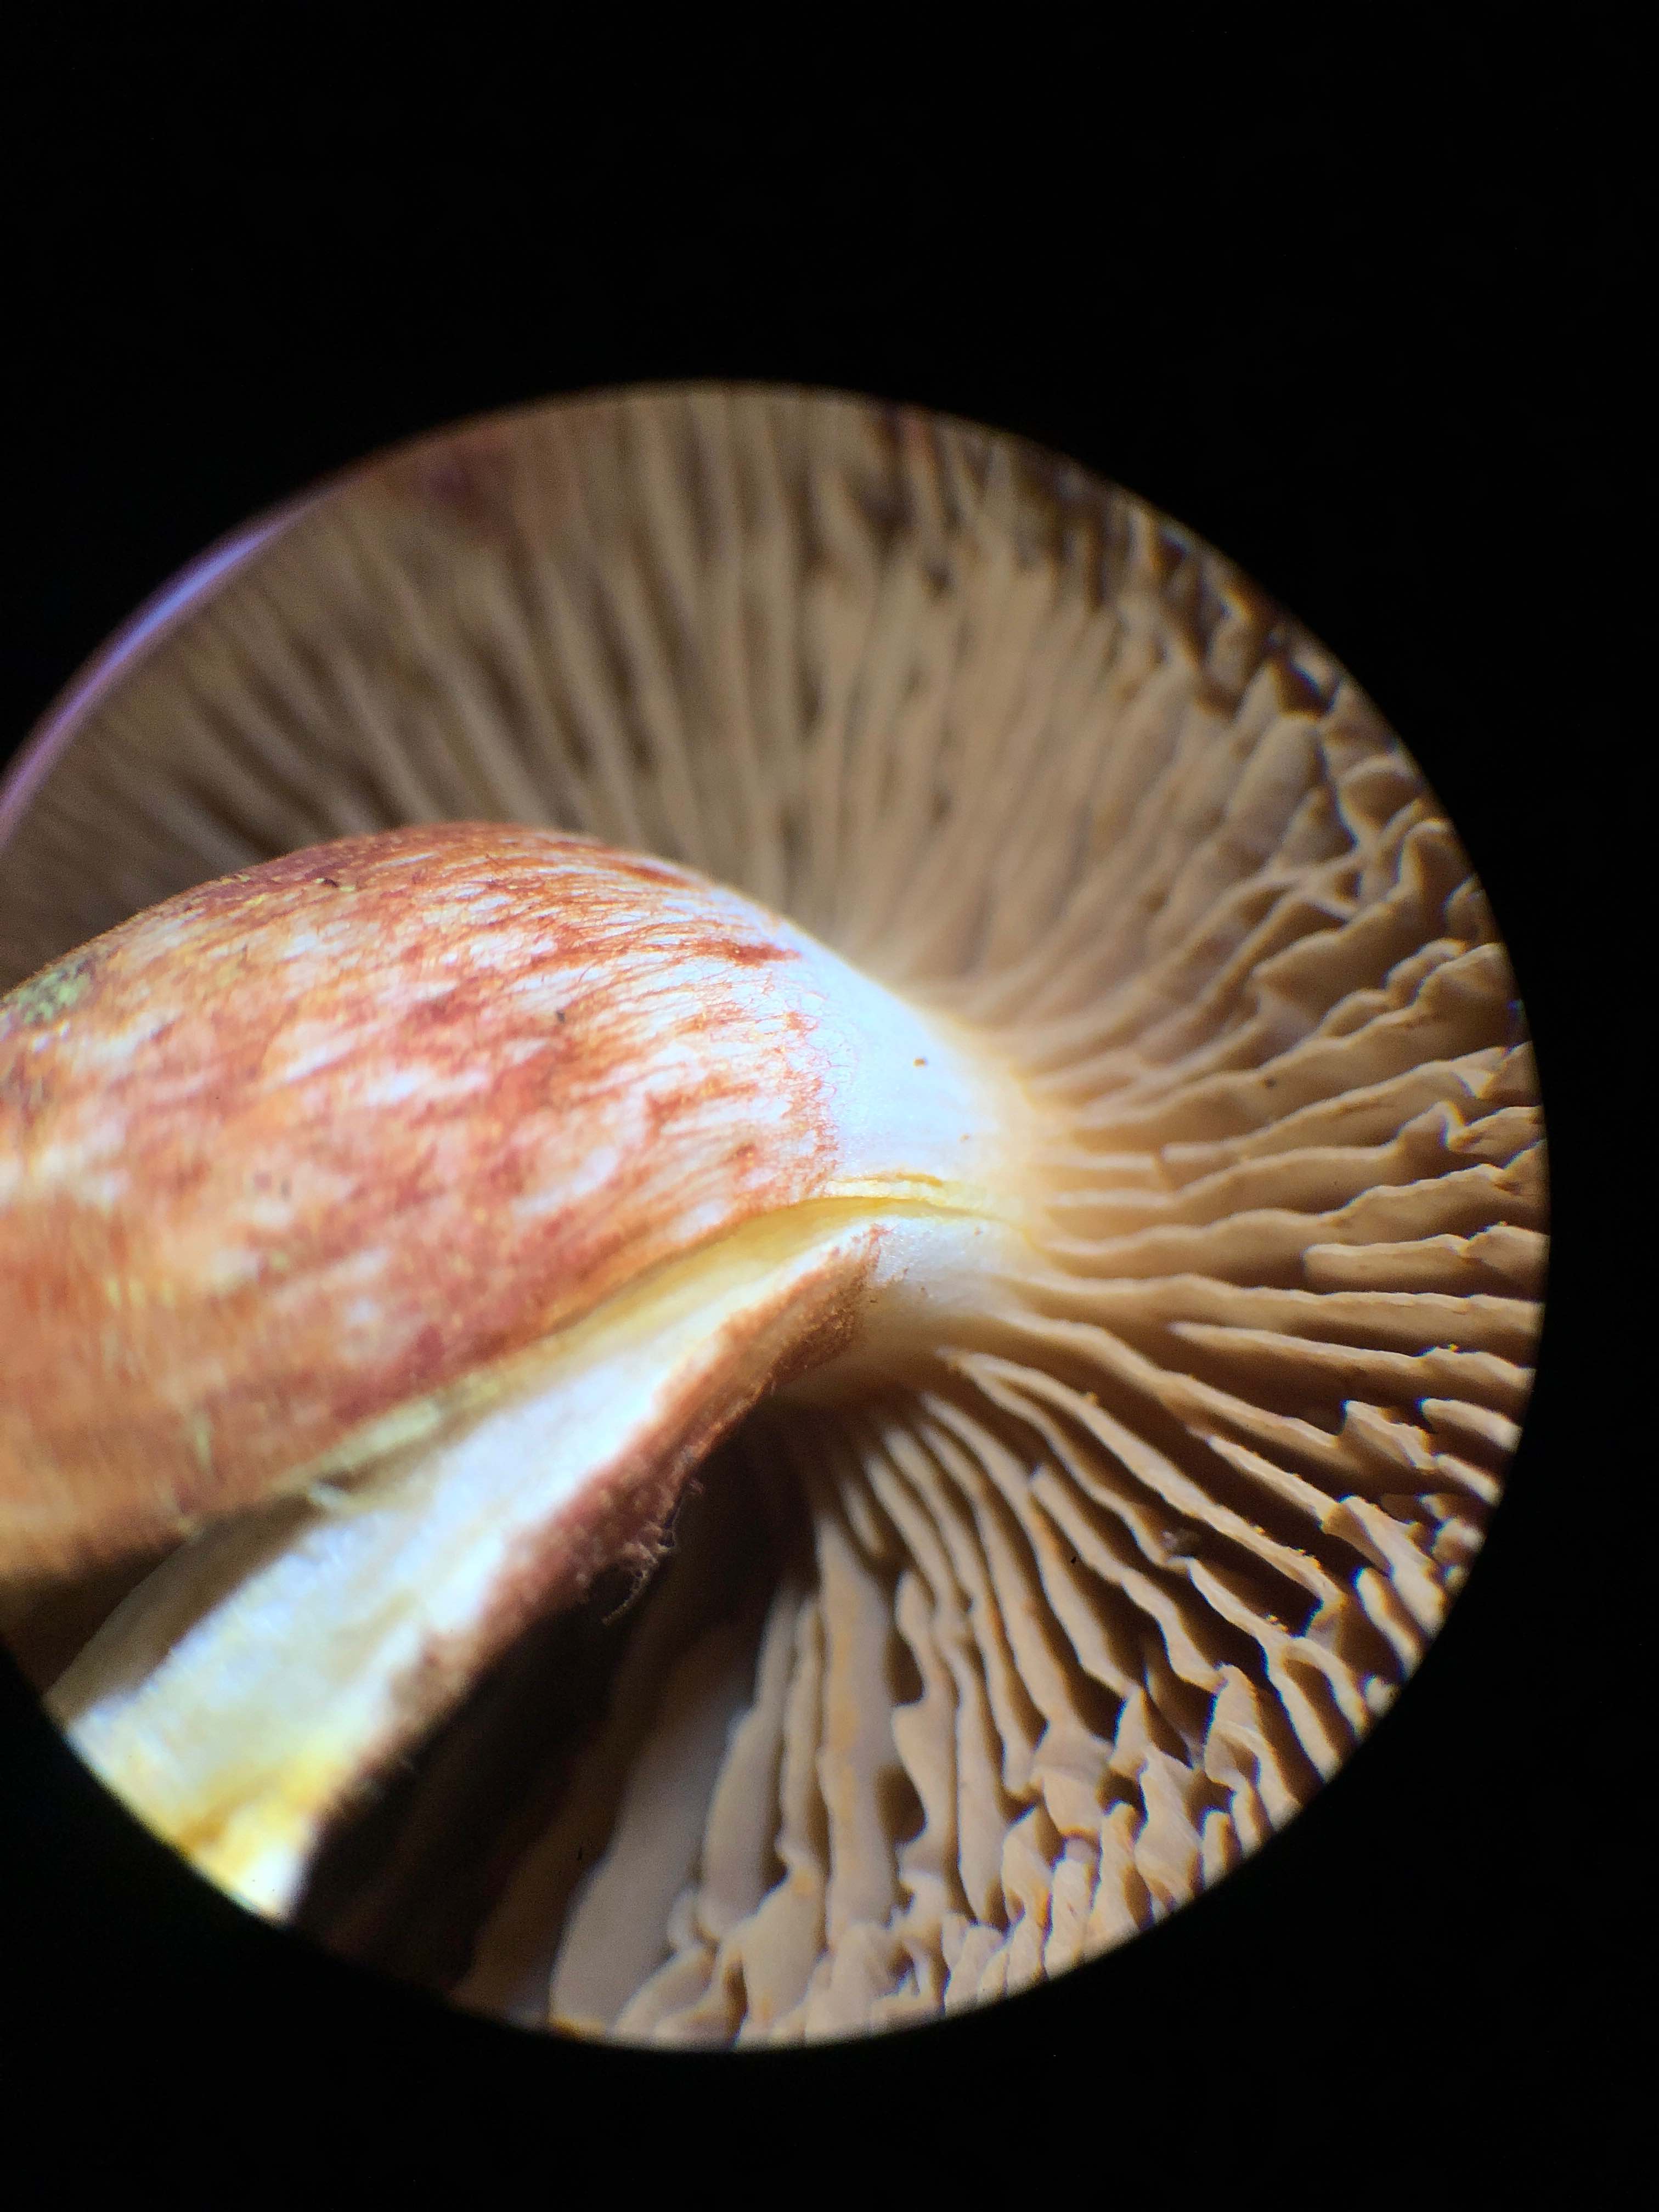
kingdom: Fungi
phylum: Basidiomycota
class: Agaricomycetes
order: Agaricales
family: Cortinariaceae
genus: Cortinarius
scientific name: Cortinarius bolaris
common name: cinnoberskællet slørhat
